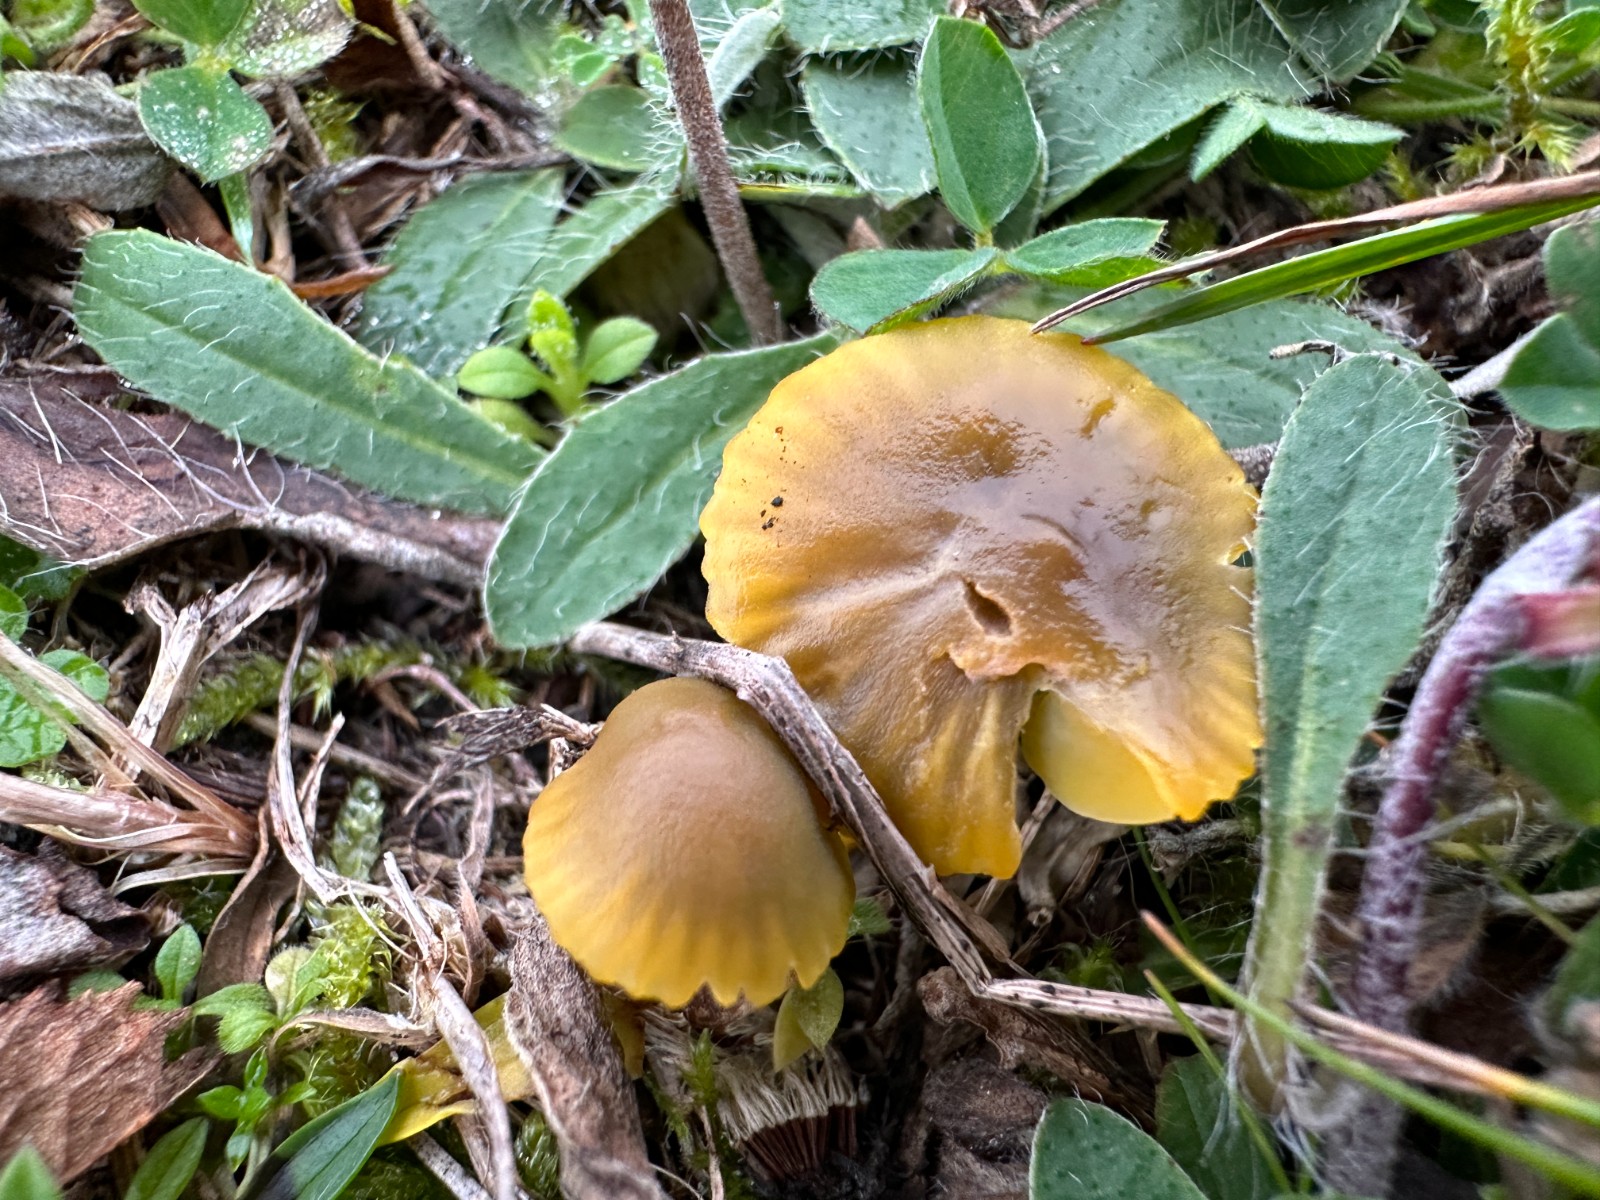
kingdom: Fungi
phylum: Basidiomycota
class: Agaricomycetes
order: Agaricales
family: Hygrophoraceae
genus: Gliophorus
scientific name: Gliophorus psittacinus
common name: papegøje-vokshat
